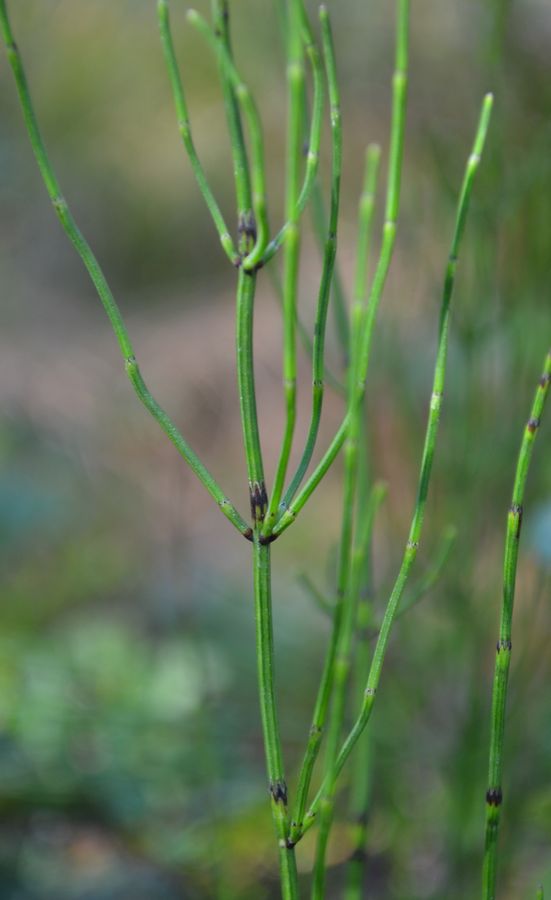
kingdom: Plantae
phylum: Tracheophyta
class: Polypodiopsida
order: Equisetales
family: Equisetaceae
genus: Equisetum
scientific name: Equisetum palustre
